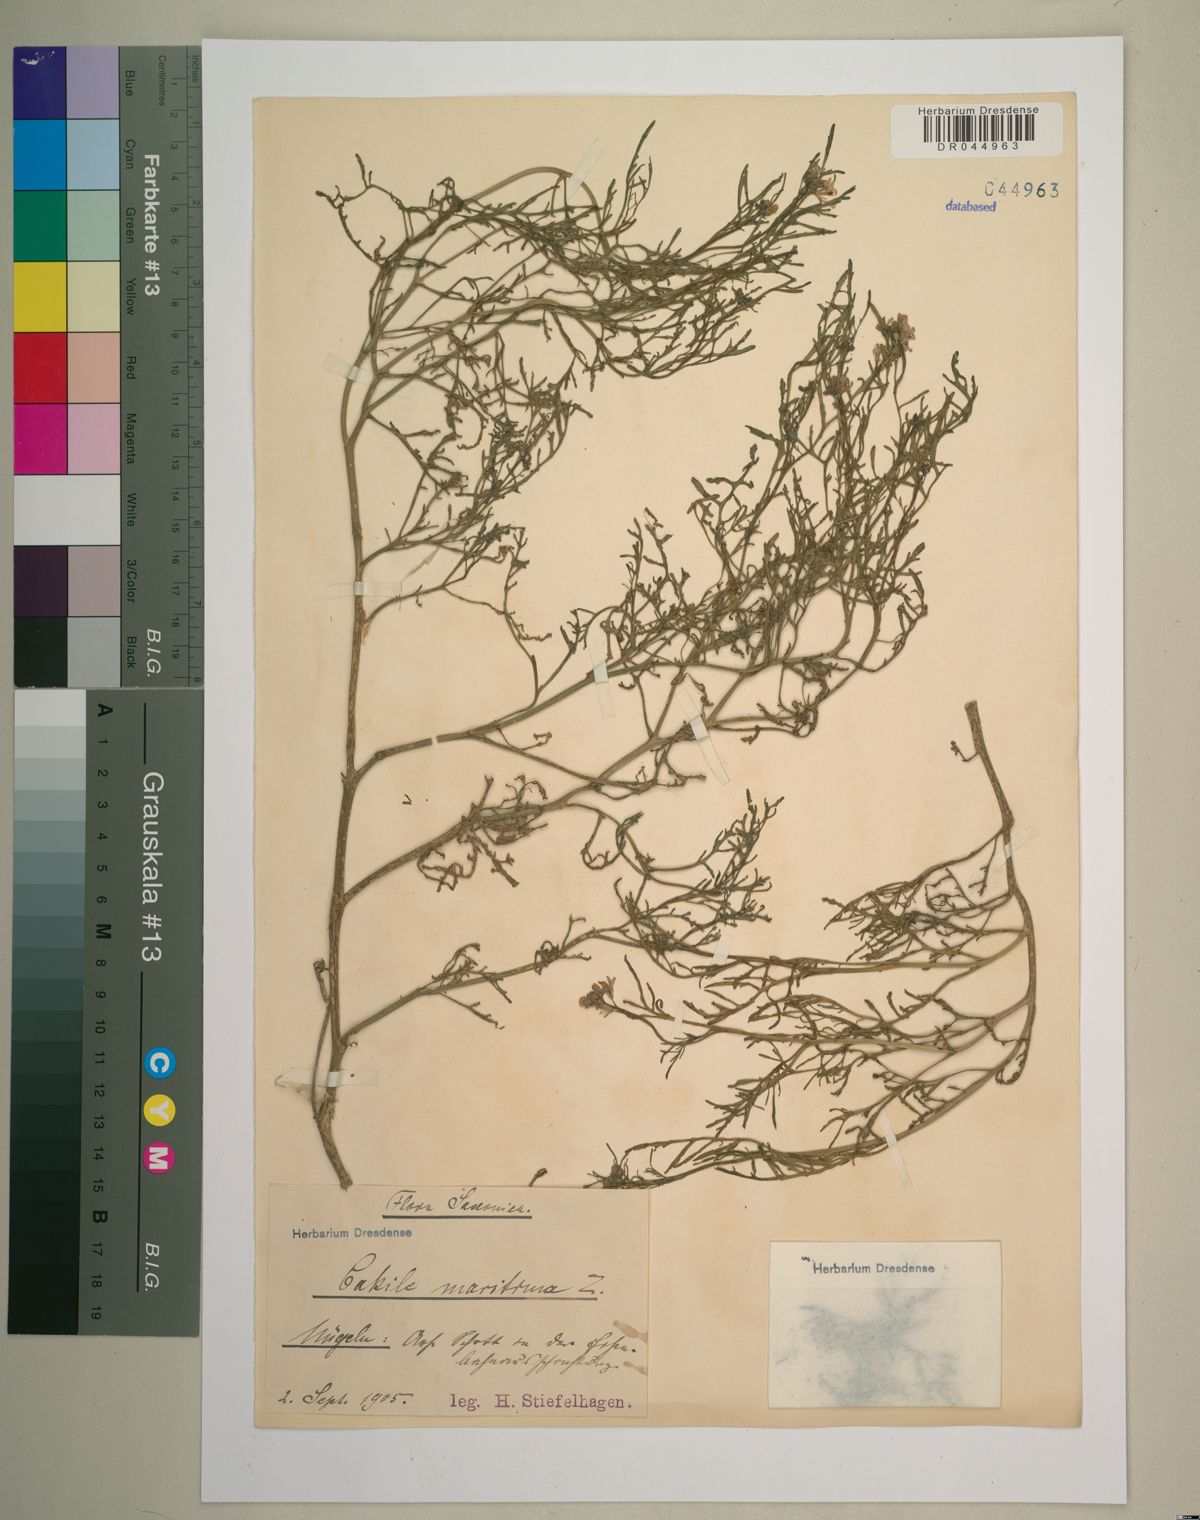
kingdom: Plantae
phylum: Tracheophyta
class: Magnoliopsida
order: Brassicales
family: Brassicaceae
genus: Cakile
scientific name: Cakile maritima
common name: Sea rocket
